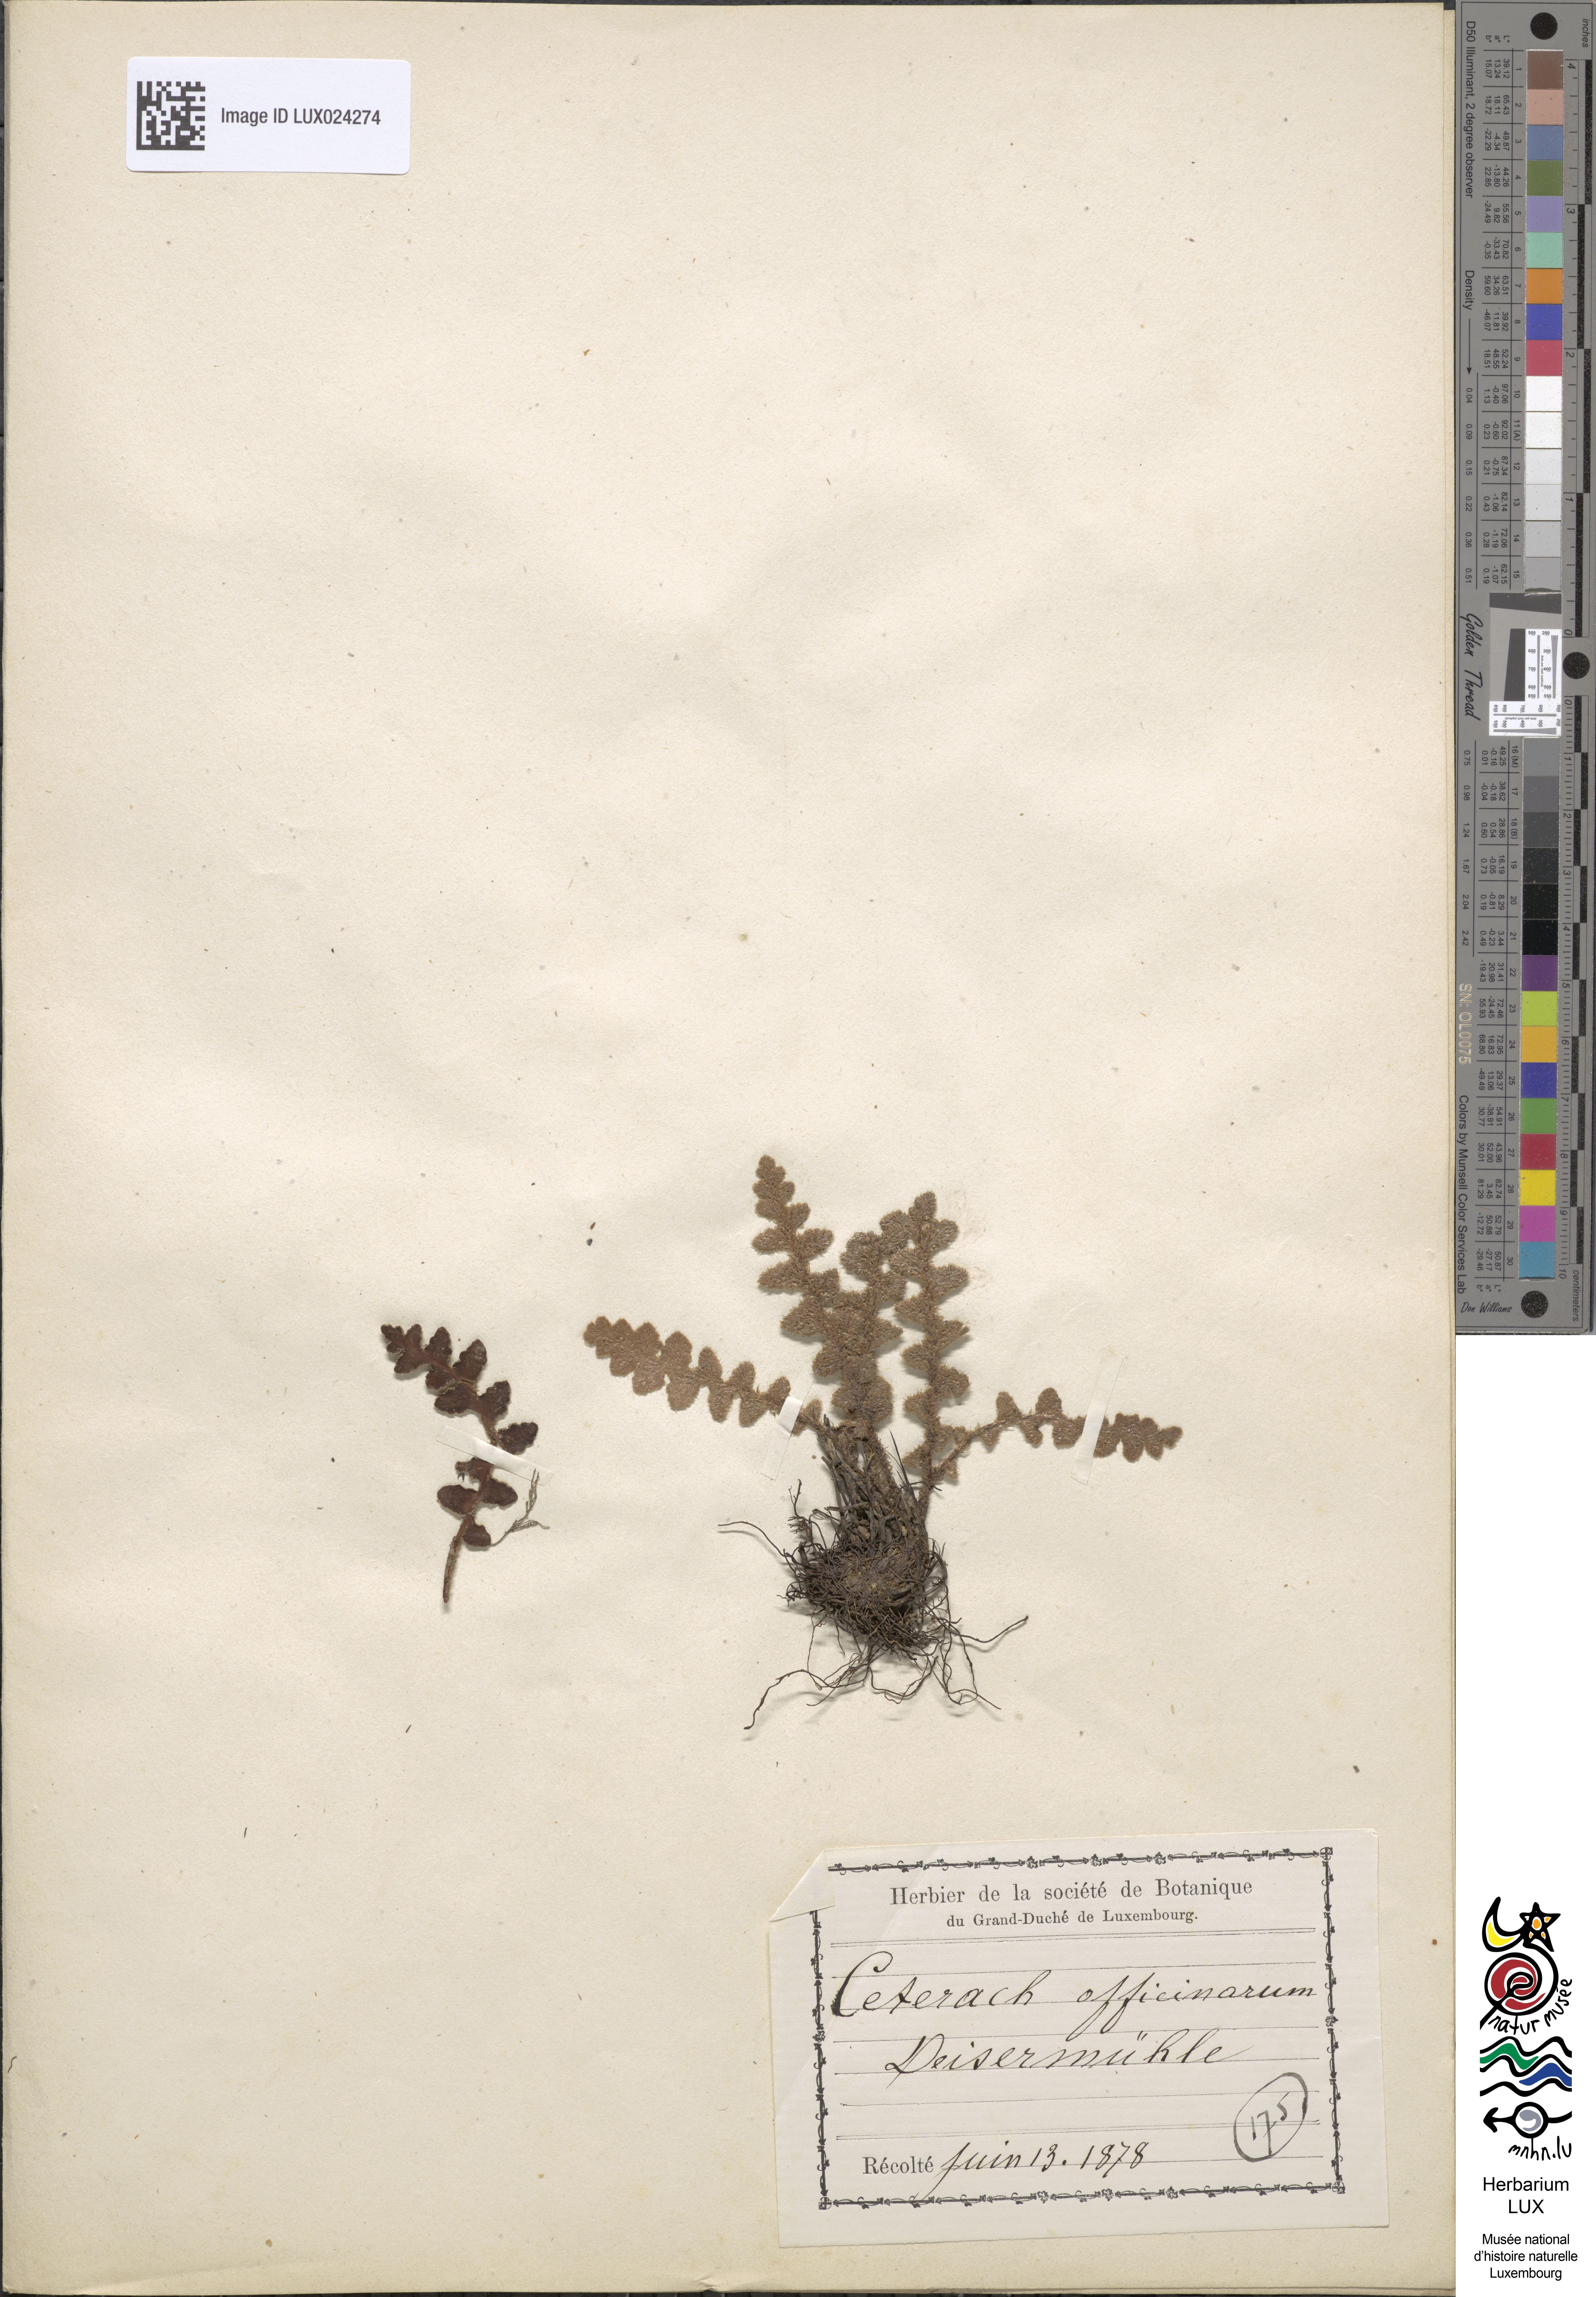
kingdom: Plantae
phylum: Tracheophyta
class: Polypodiopsida
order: Polypodiales
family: Aspleniaceae
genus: Asplenium
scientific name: Asplenium ceterach
